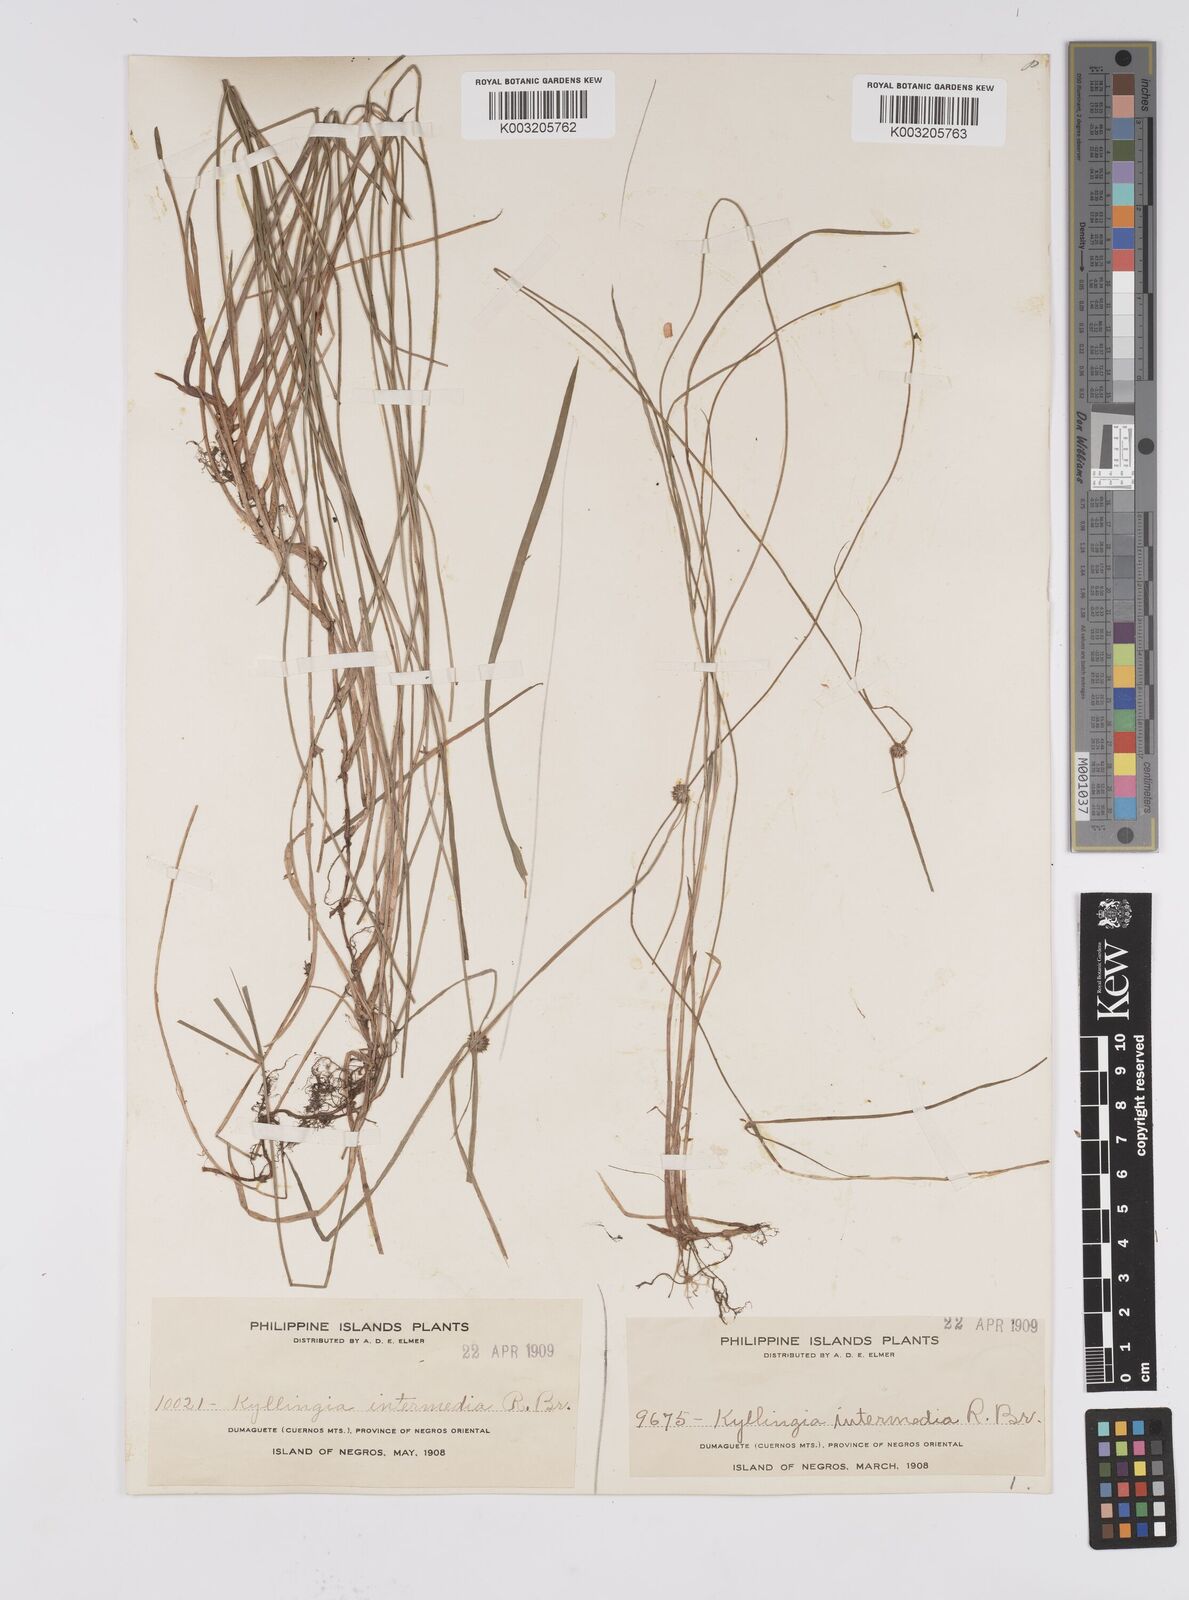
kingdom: Plantae
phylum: Tracheophyta
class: Liliopsida
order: Poales
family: Cyperaceae
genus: Cyperus
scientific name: Cyperus brevifolius
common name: Globe kyllinga
